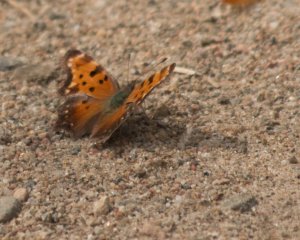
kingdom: Animalia
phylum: Arthropoda
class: Insecta
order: Lepidoptera
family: Nymphalidae
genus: Polygonia
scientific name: Polygonia progne
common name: Gray Comma
